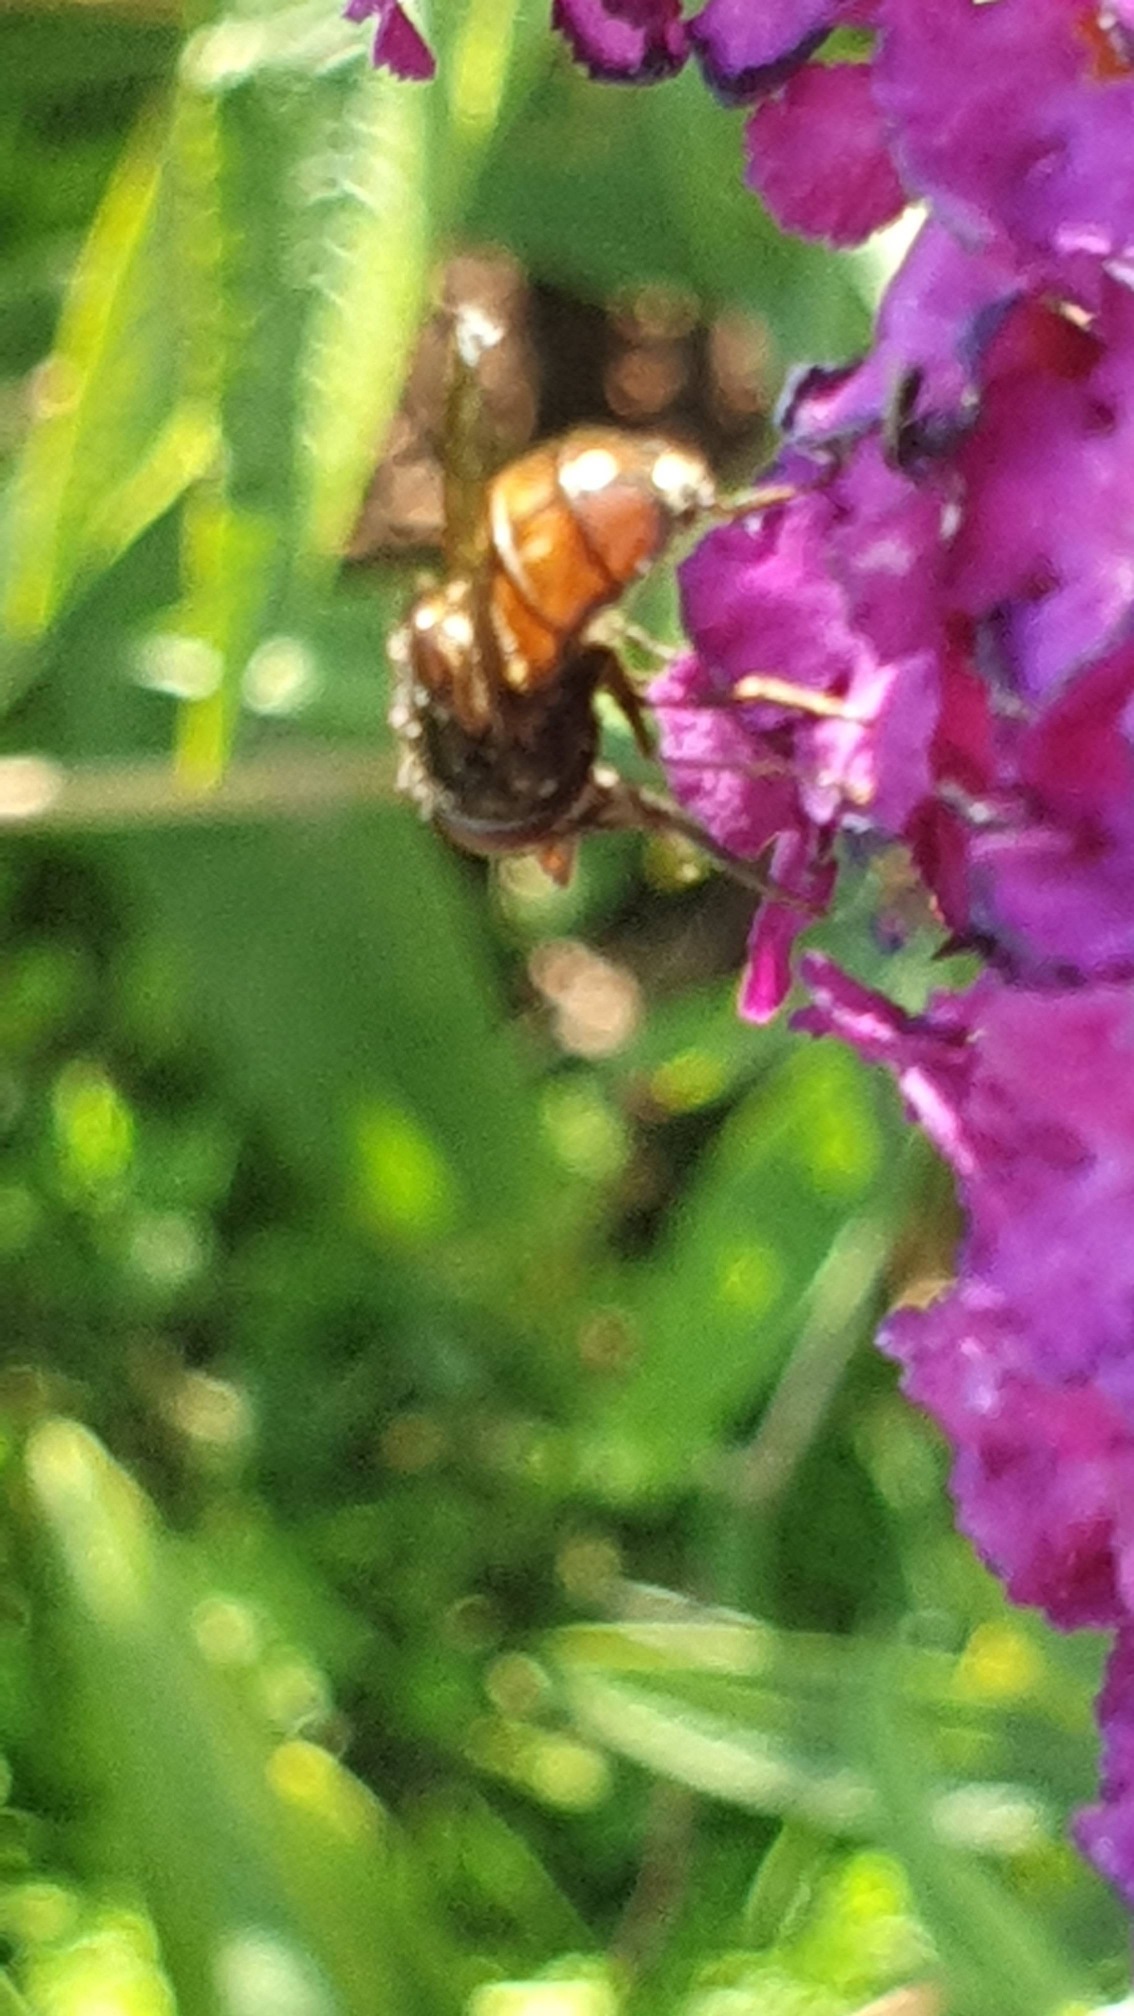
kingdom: Animalia
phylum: Arthropoda
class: Insecta
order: Diptera
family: Syrphidae
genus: Rhingia
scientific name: Rhingia campestris
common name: Mark-snabelsvirreflue
